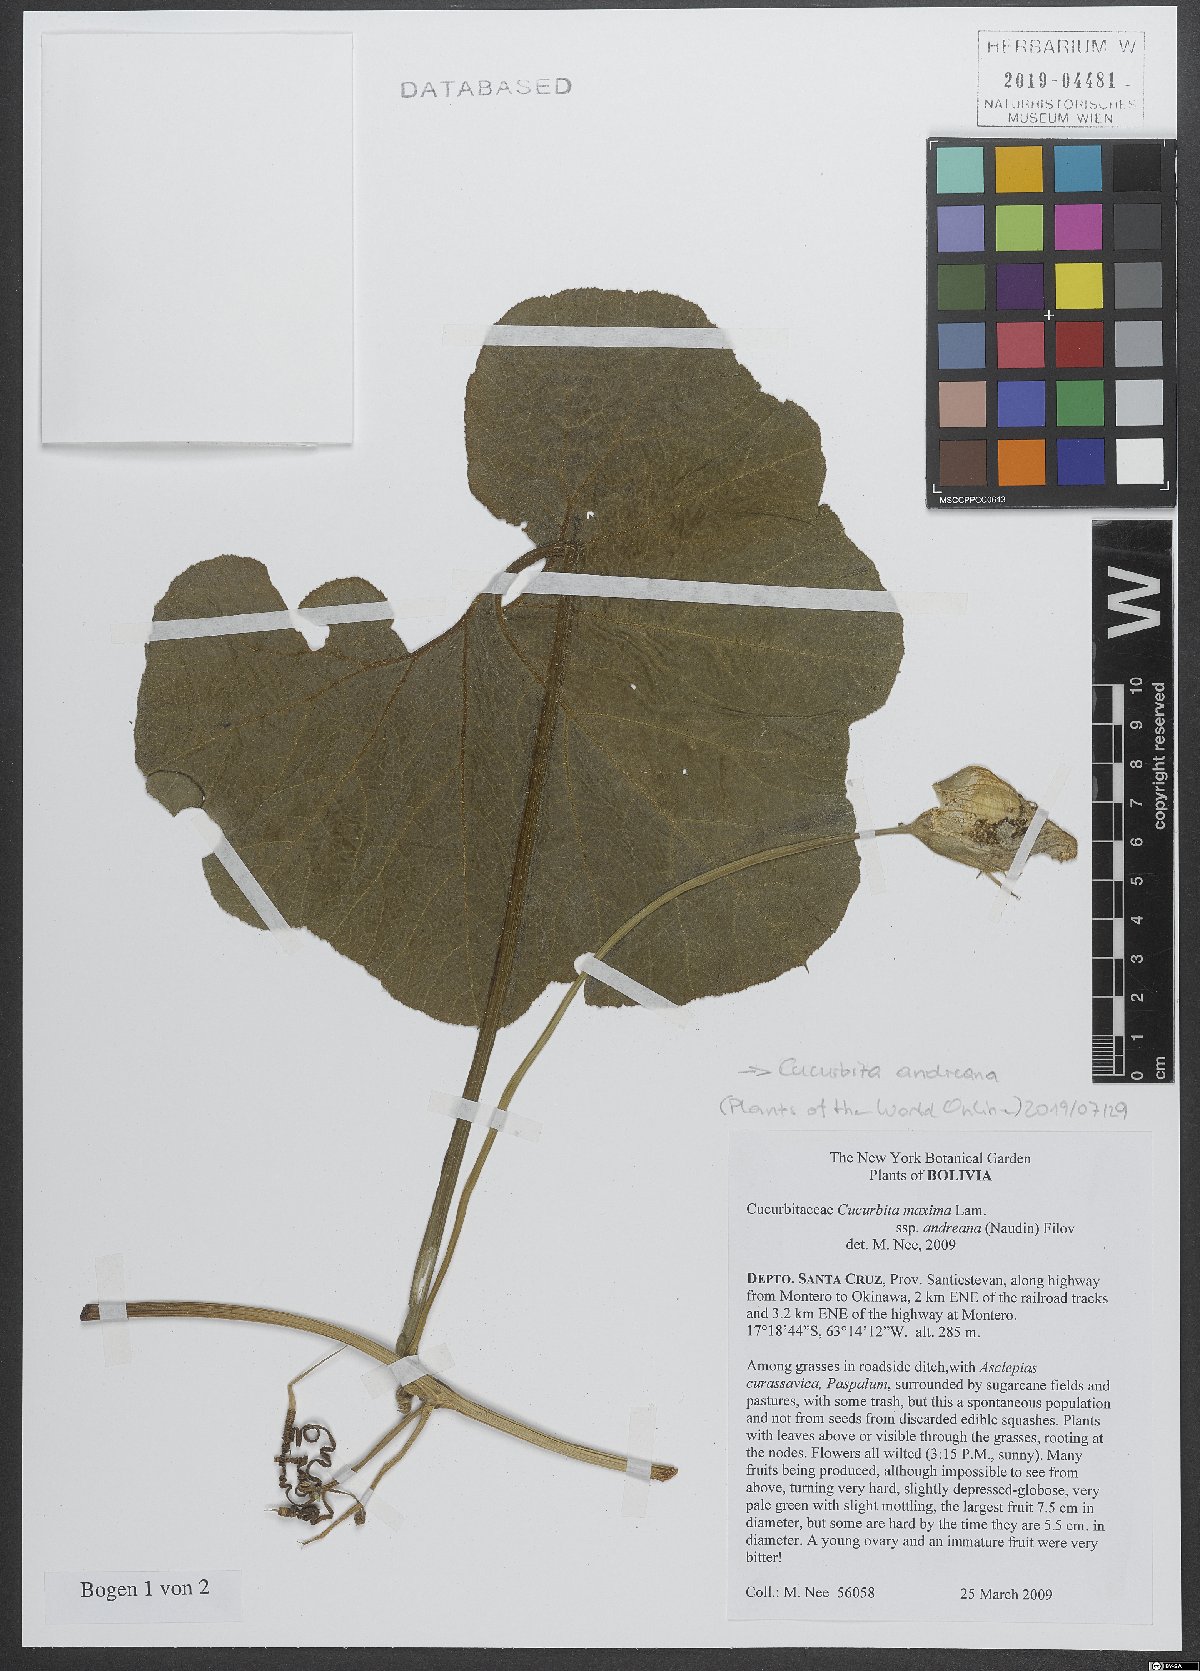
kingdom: Plantae
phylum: Tracheophyta
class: Magnoliopsida
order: Cucurbitales
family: Cucurbitaceae
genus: Cucurbita
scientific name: Cucurbita andreana
